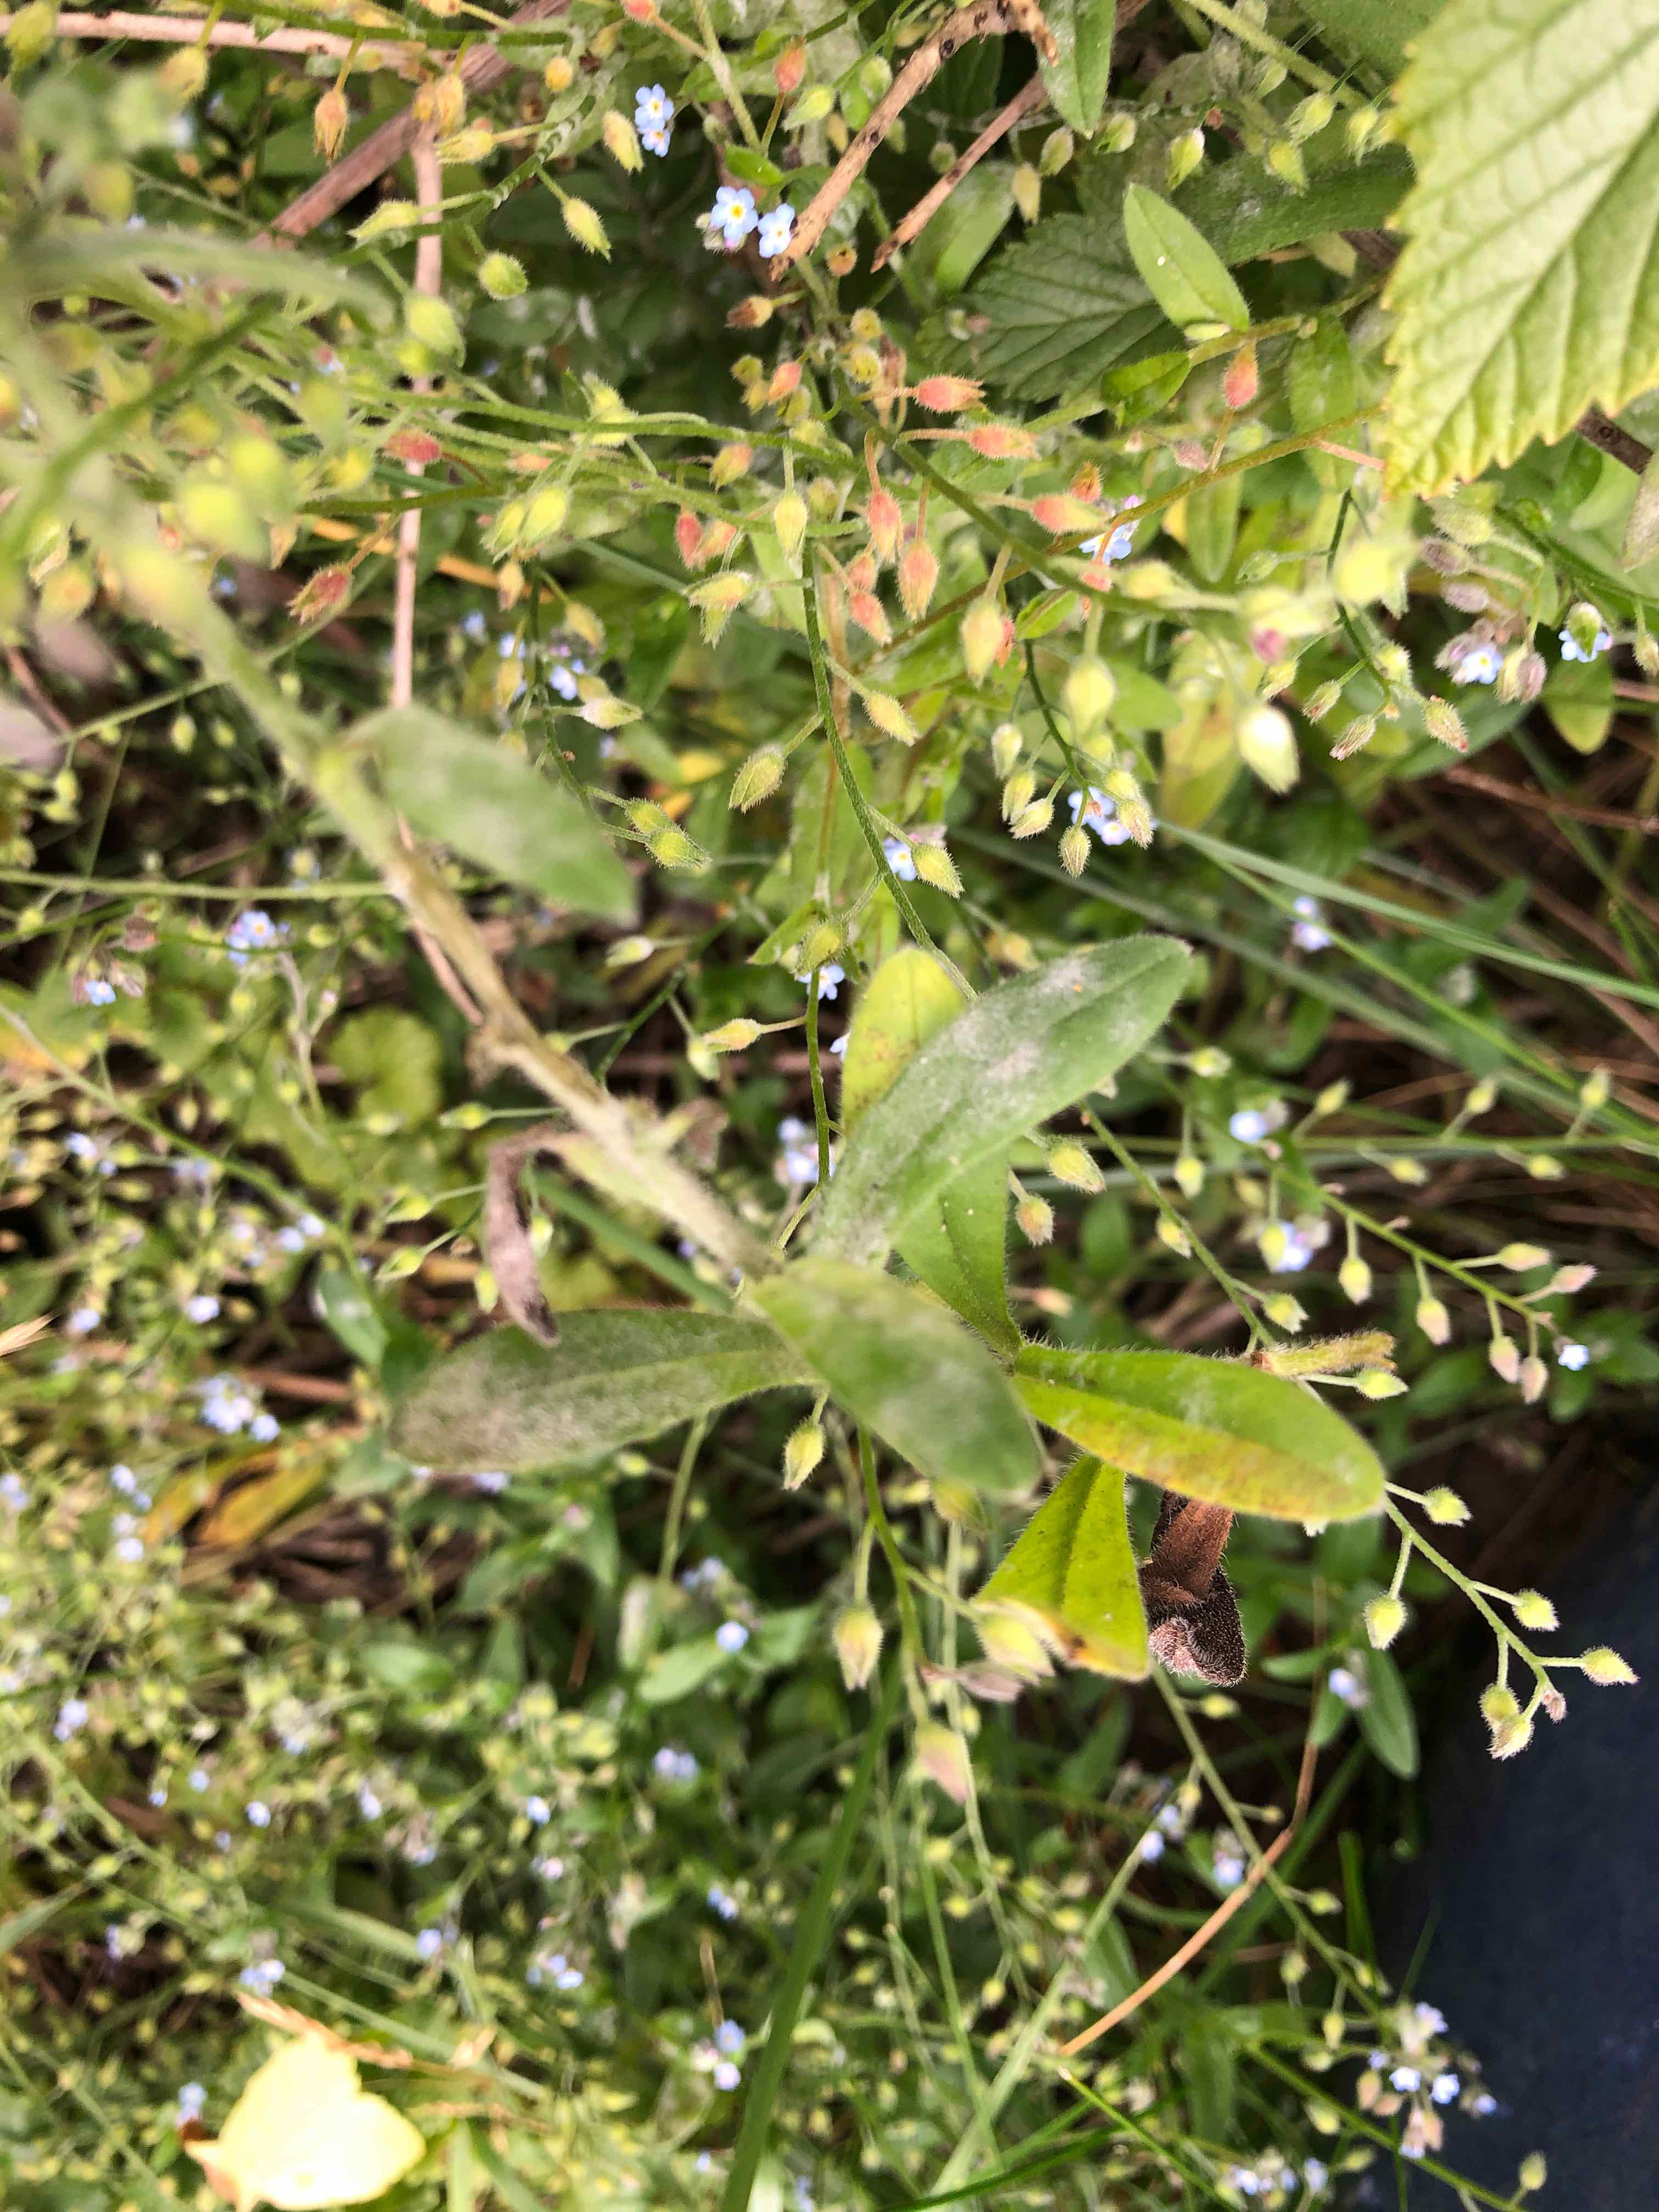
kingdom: Fungi
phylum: Ascomycota
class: Leotiomycetes
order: Helotiales
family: Erysiphaceae
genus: Golovinomyces
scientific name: Golovinomyces asperifolii
